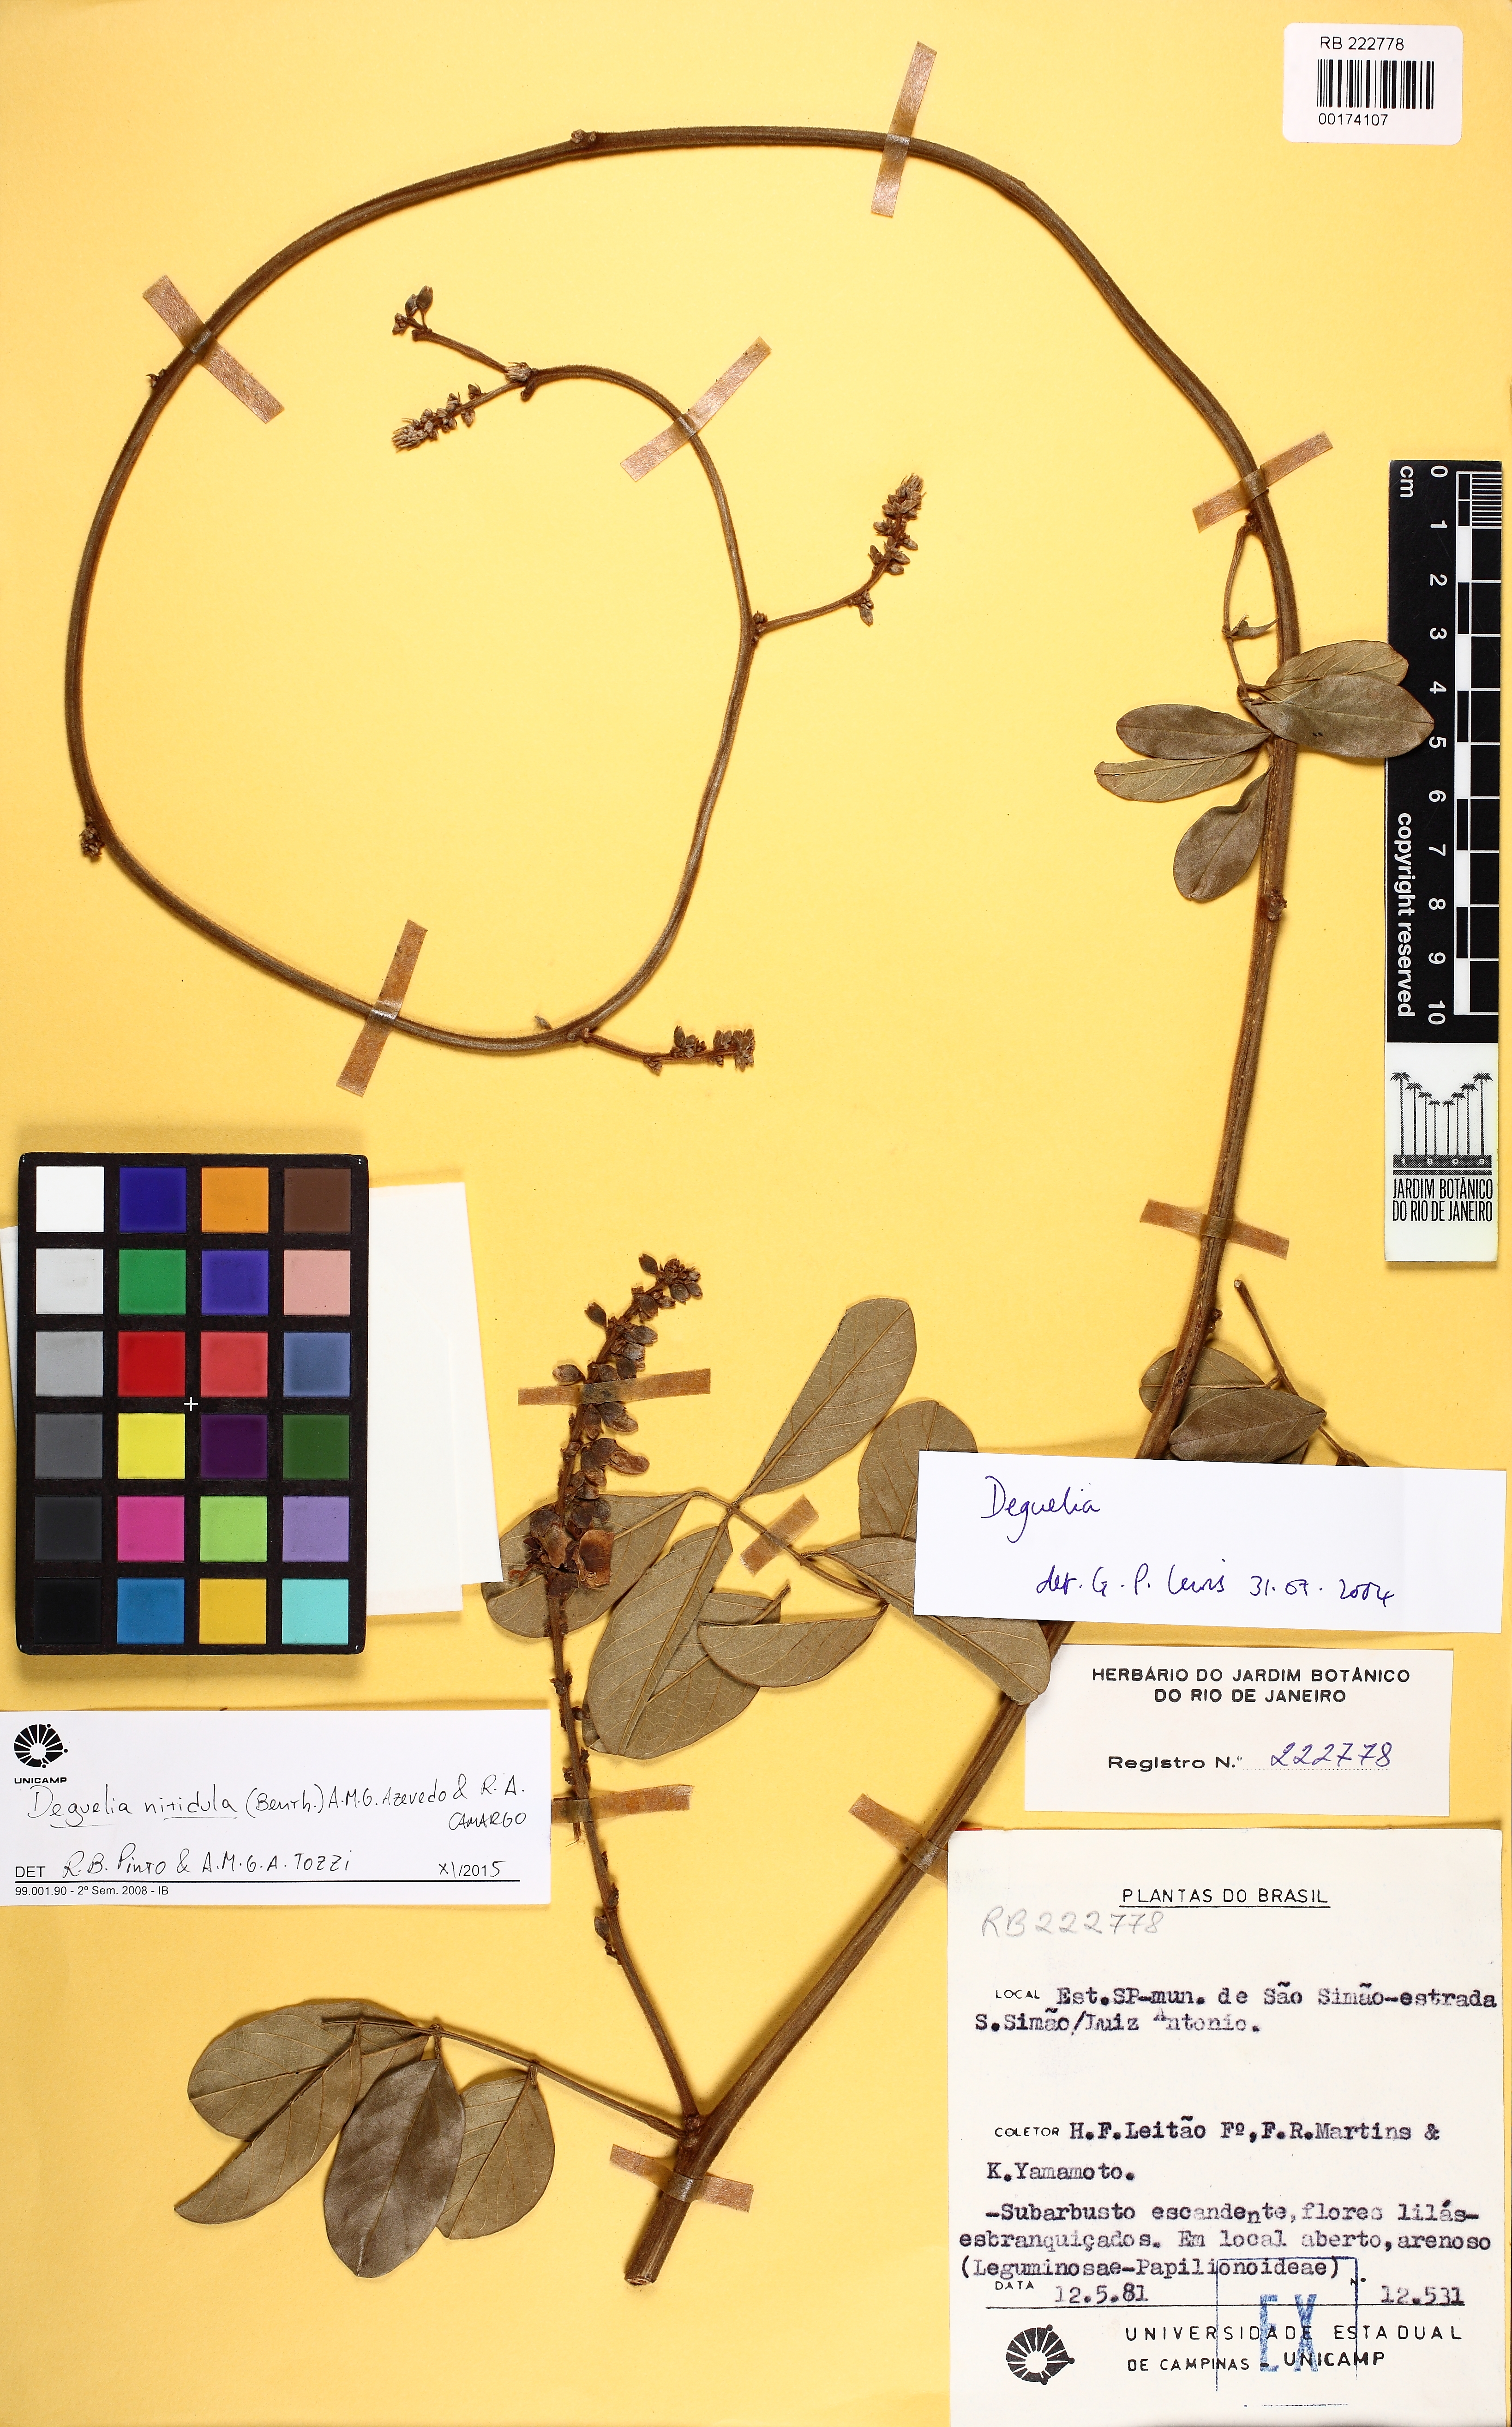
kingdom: Plantae
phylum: Tracheophyta
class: Magnoliopsida
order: Fabales
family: Fabaceae
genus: Deguelia
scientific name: Deguelia nitidula
